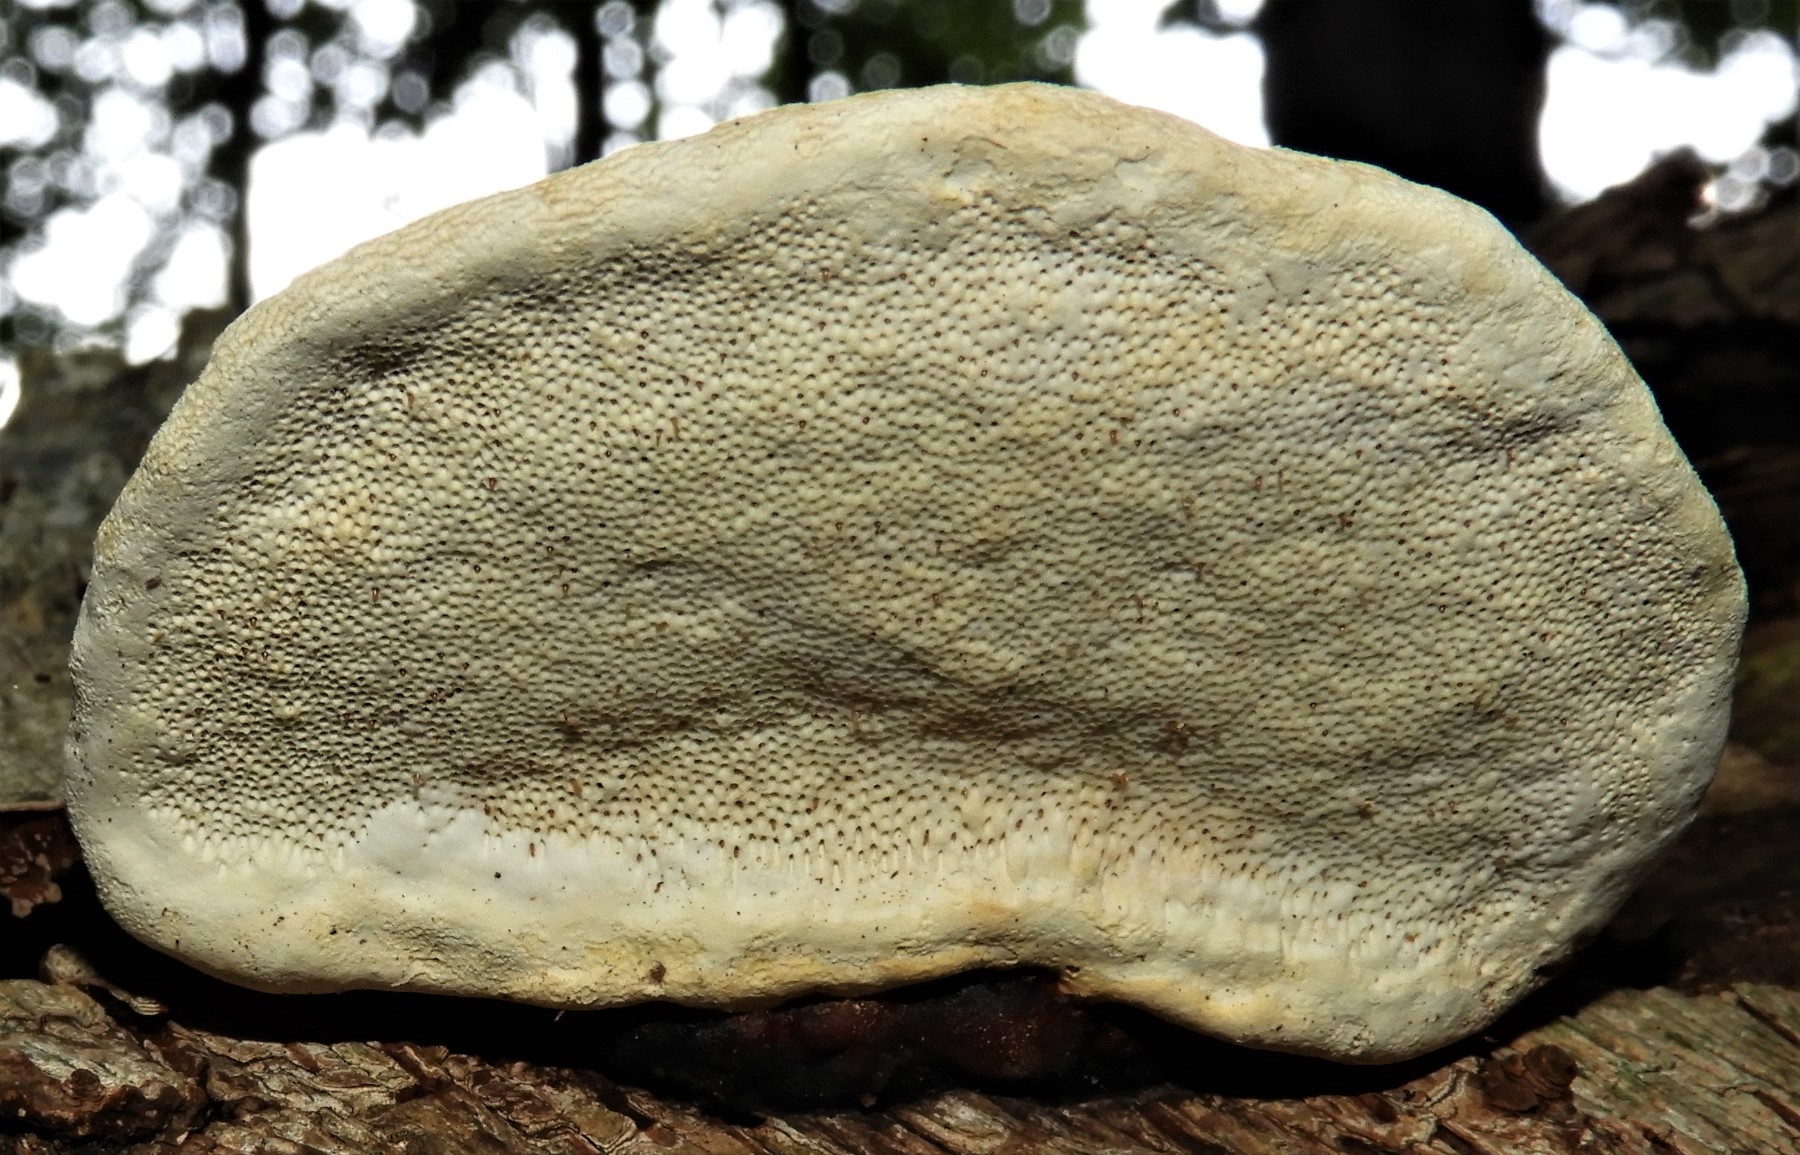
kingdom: Fungi
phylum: Basidiomycota
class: Agaricomycetes
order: Polyporales
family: Fomitopsidaceae
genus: Fomitopsis
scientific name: Fomitopsis pinicola
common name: randbæltet hovporesvamp
